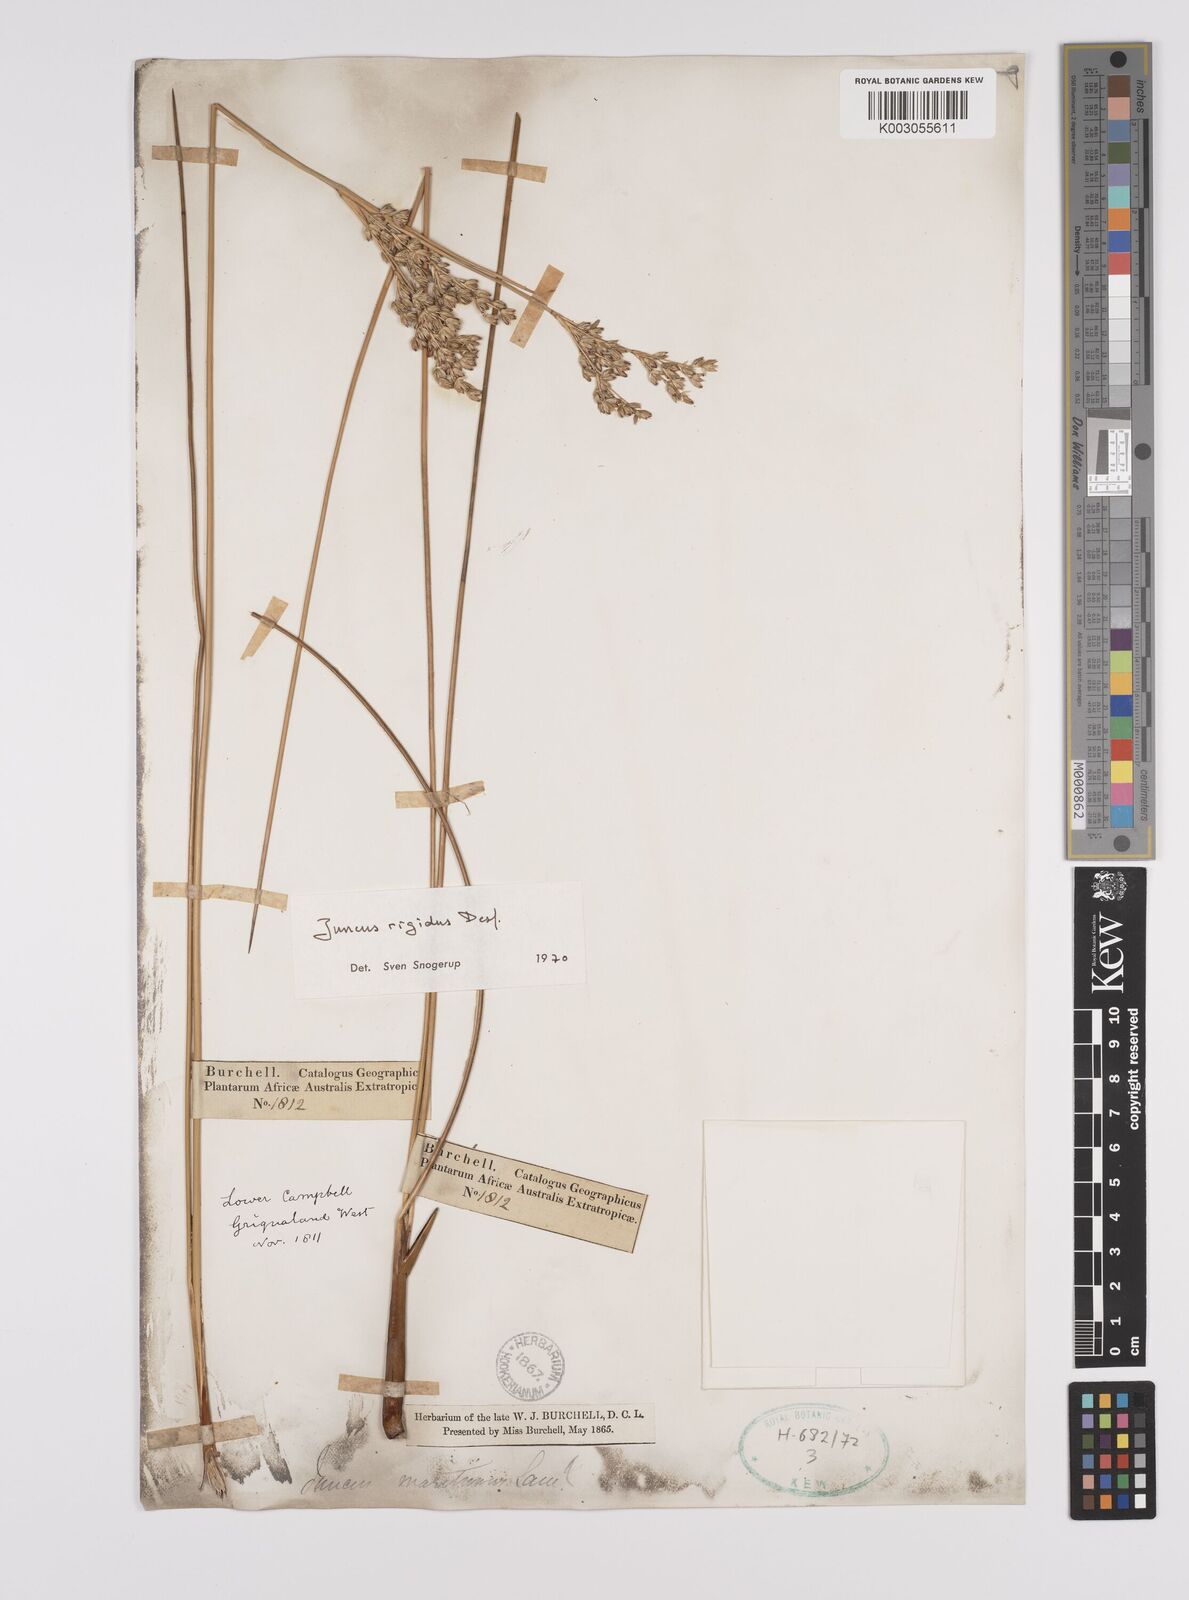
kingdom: Plantae
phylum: Tracheophyta
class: Liliopsida
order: Poales
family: Juncaceae
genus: Juncus
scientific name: Juncus rigidus
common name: Hard sea rush
